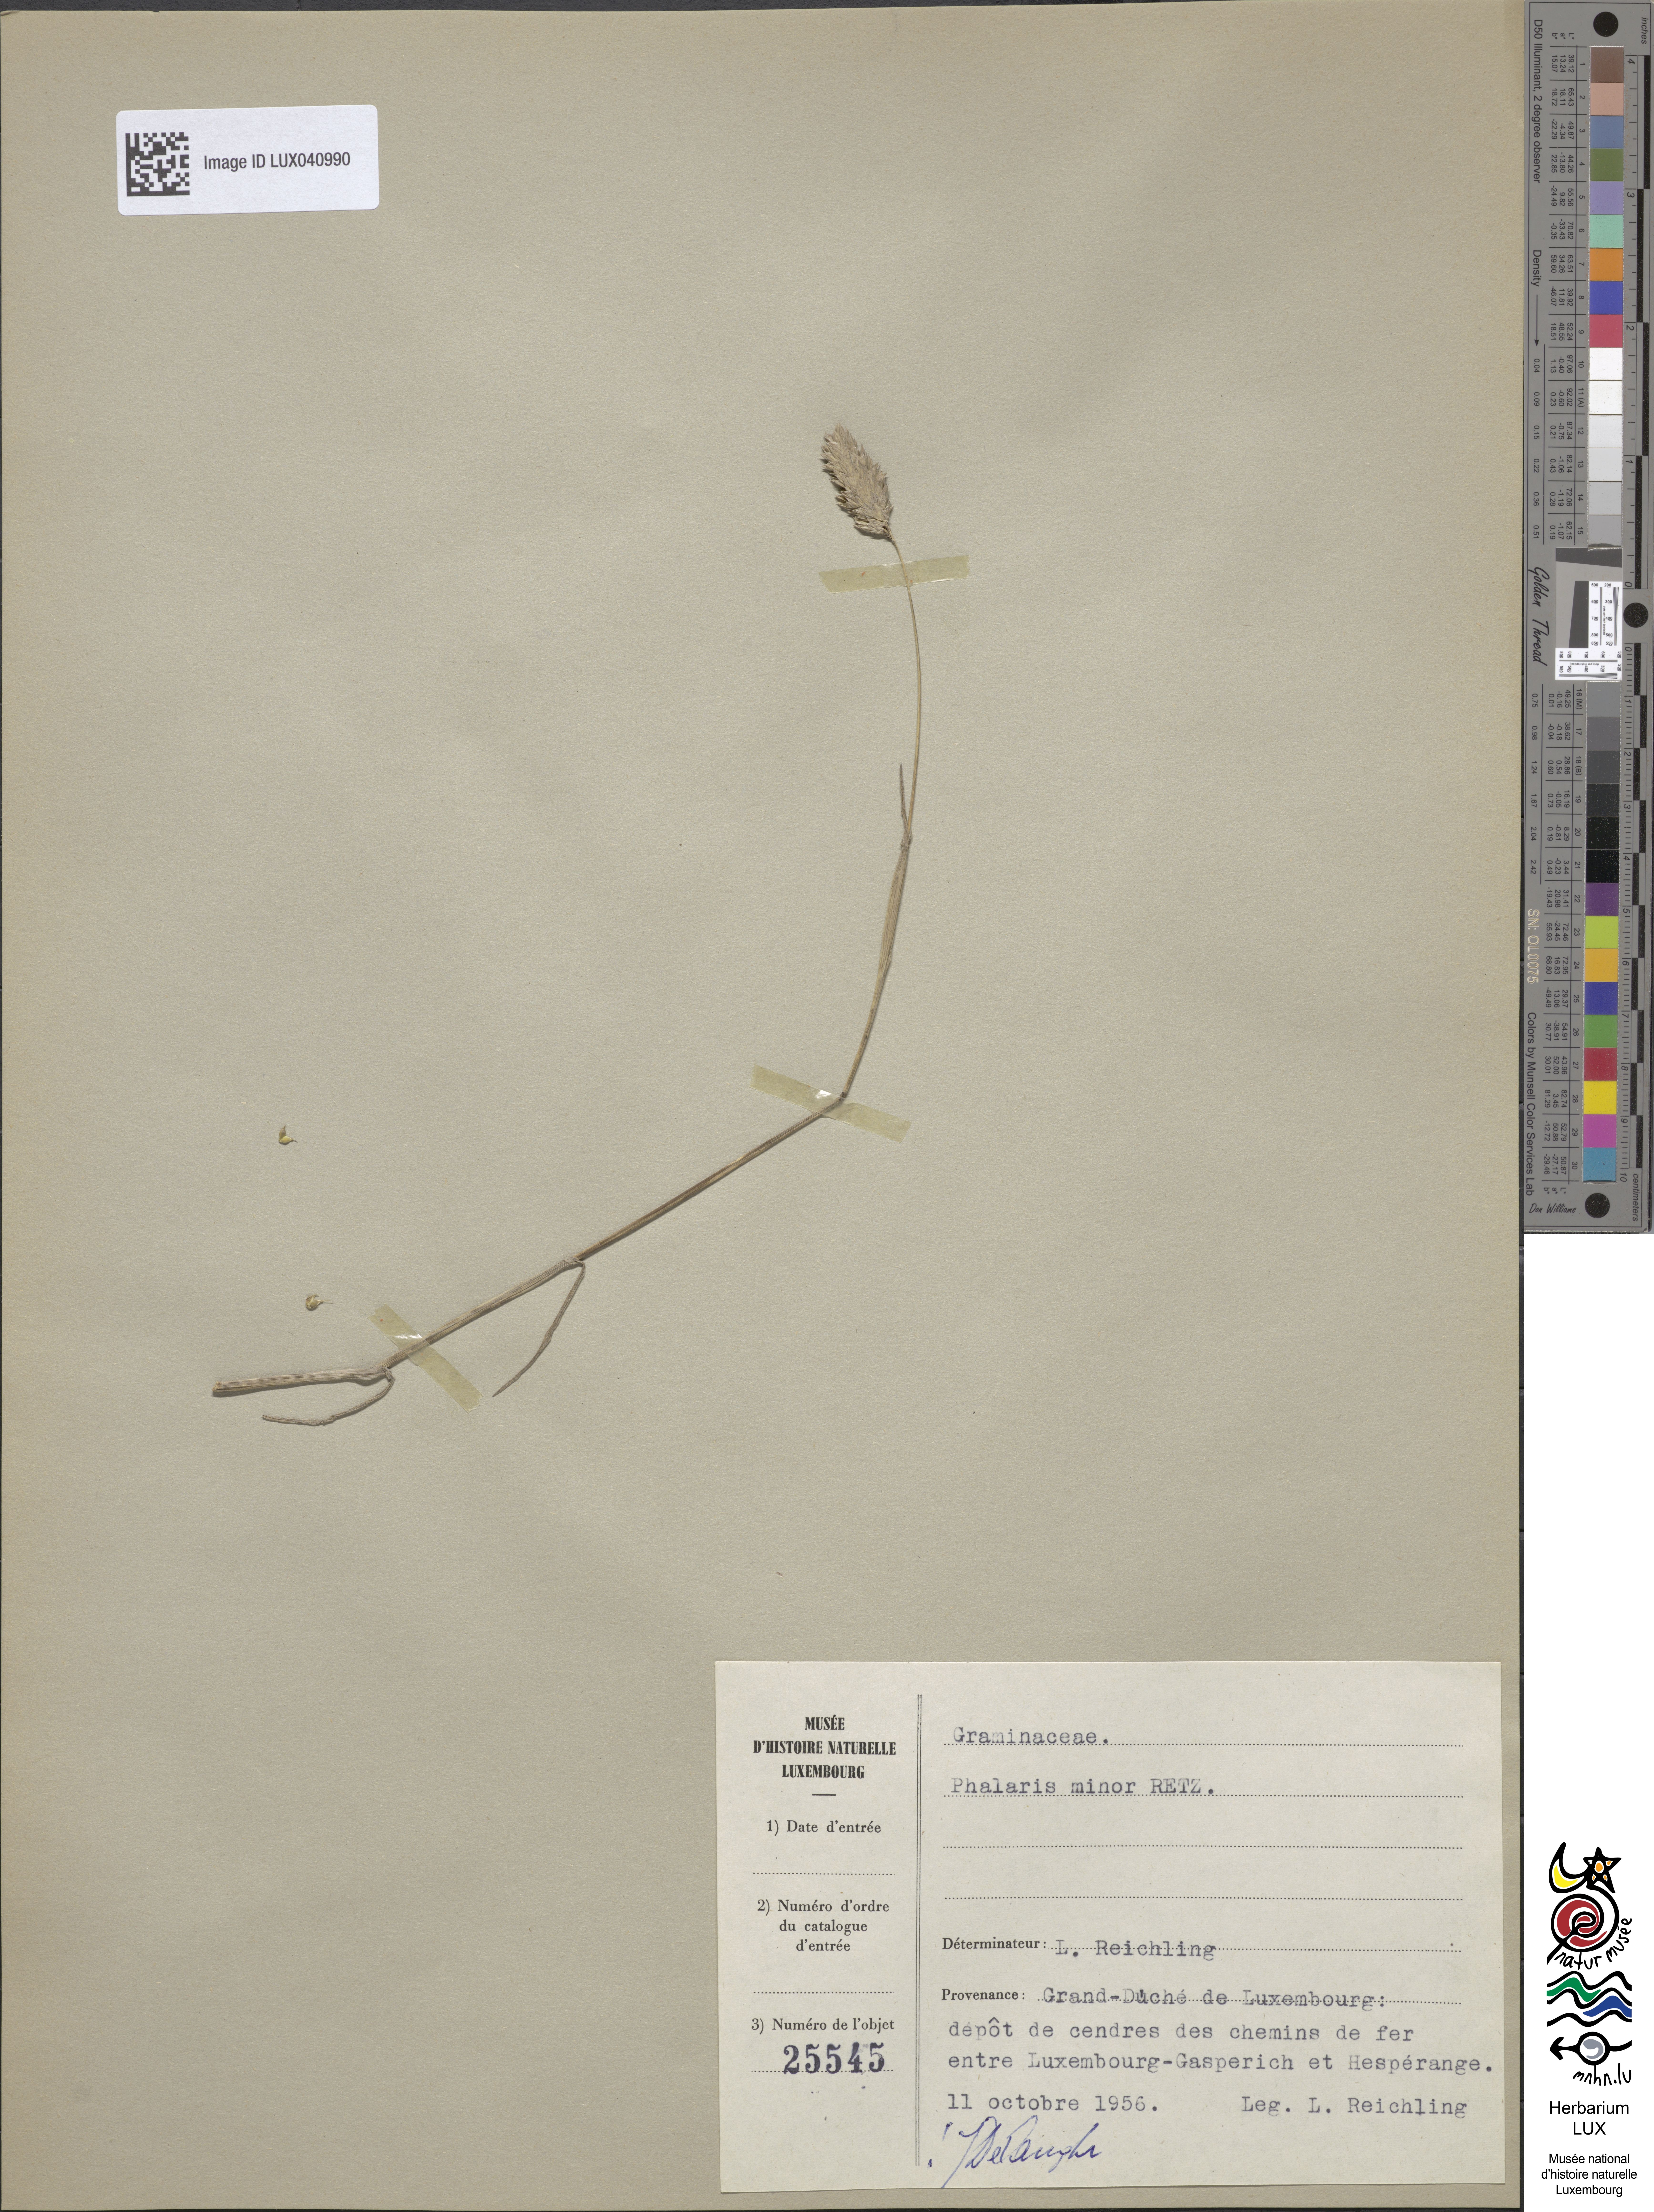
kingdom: Plantae
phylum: Tracheophyta
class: Liliopsida
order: Poales
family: Poaceae
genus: Phalaris
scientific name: Phalaris minor
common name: Littleseed canarygrass
